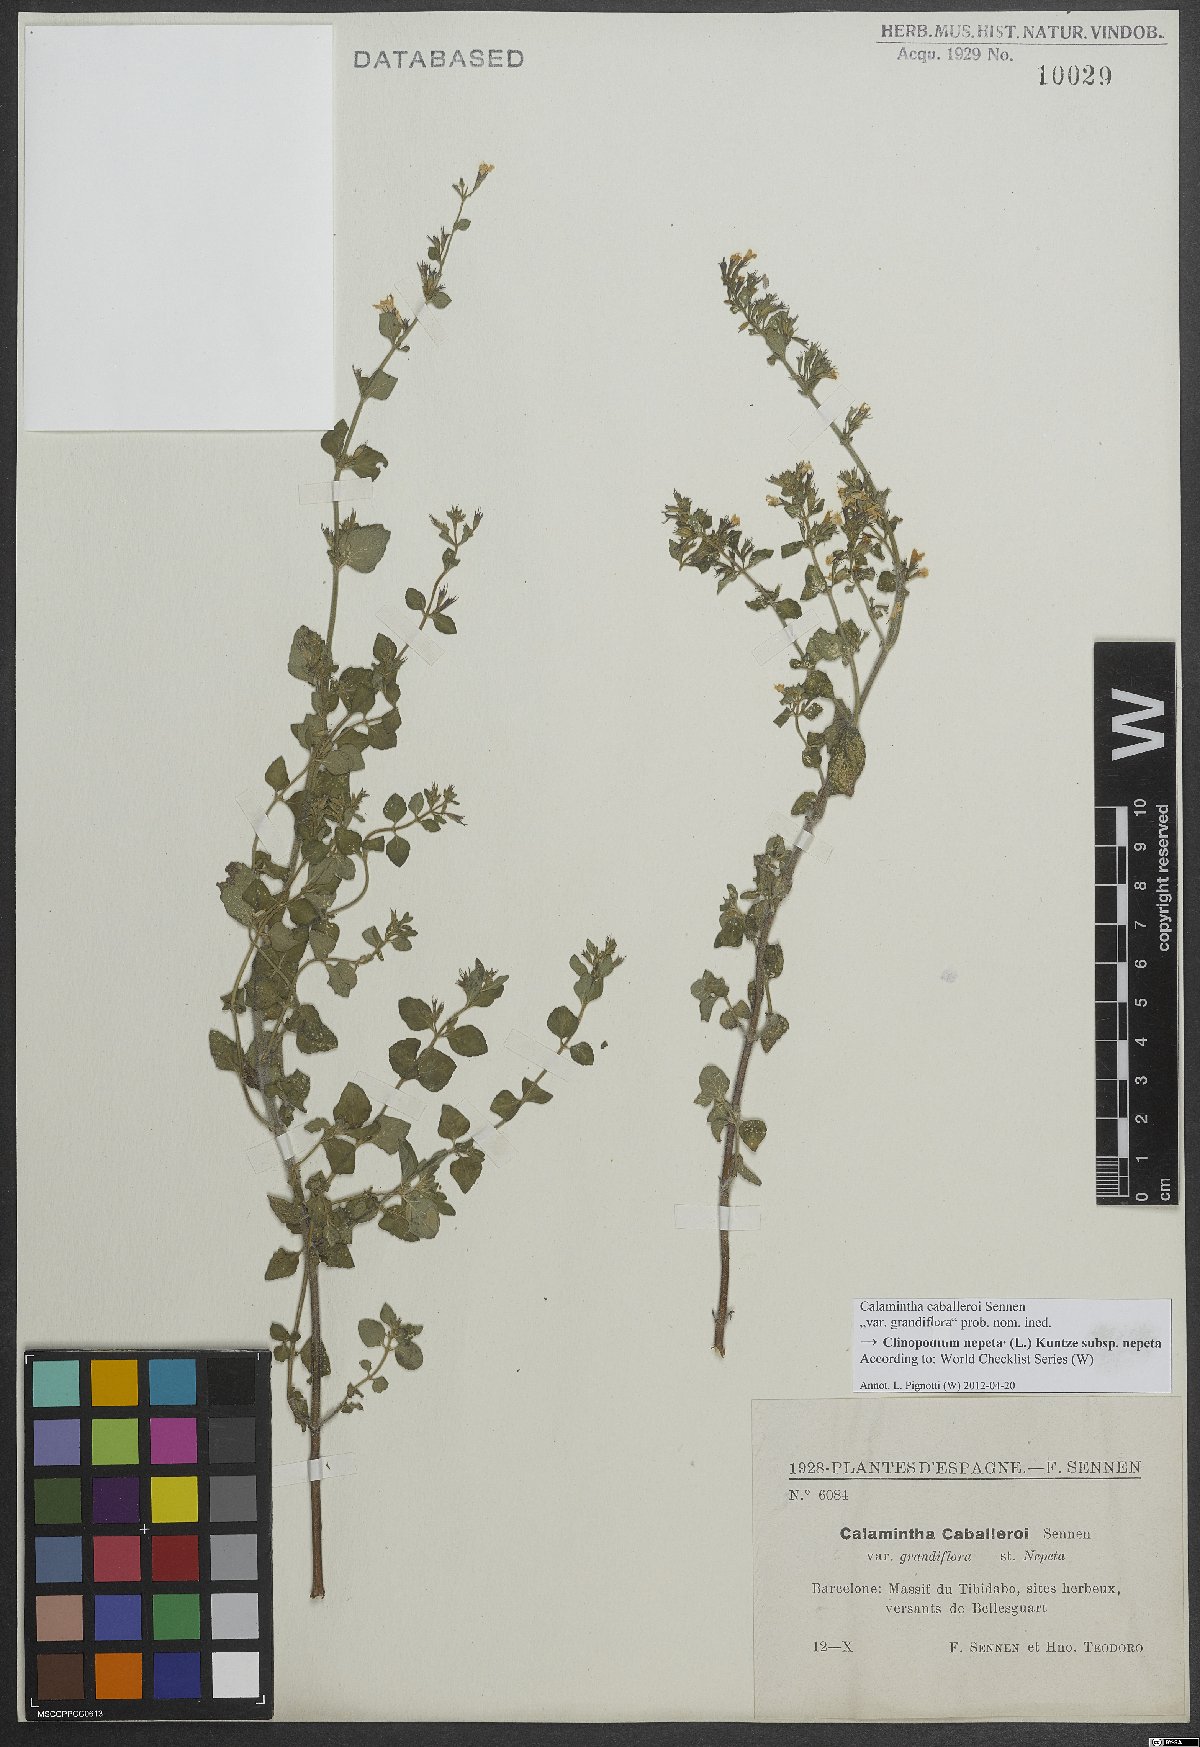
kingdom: Plantae
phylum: Tracheophyta
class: Magnoliopsida
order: Lamiales
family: Lamiaceae
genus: Clinopodium
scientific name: Clinopodium nepeta
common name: Lesser calamint
